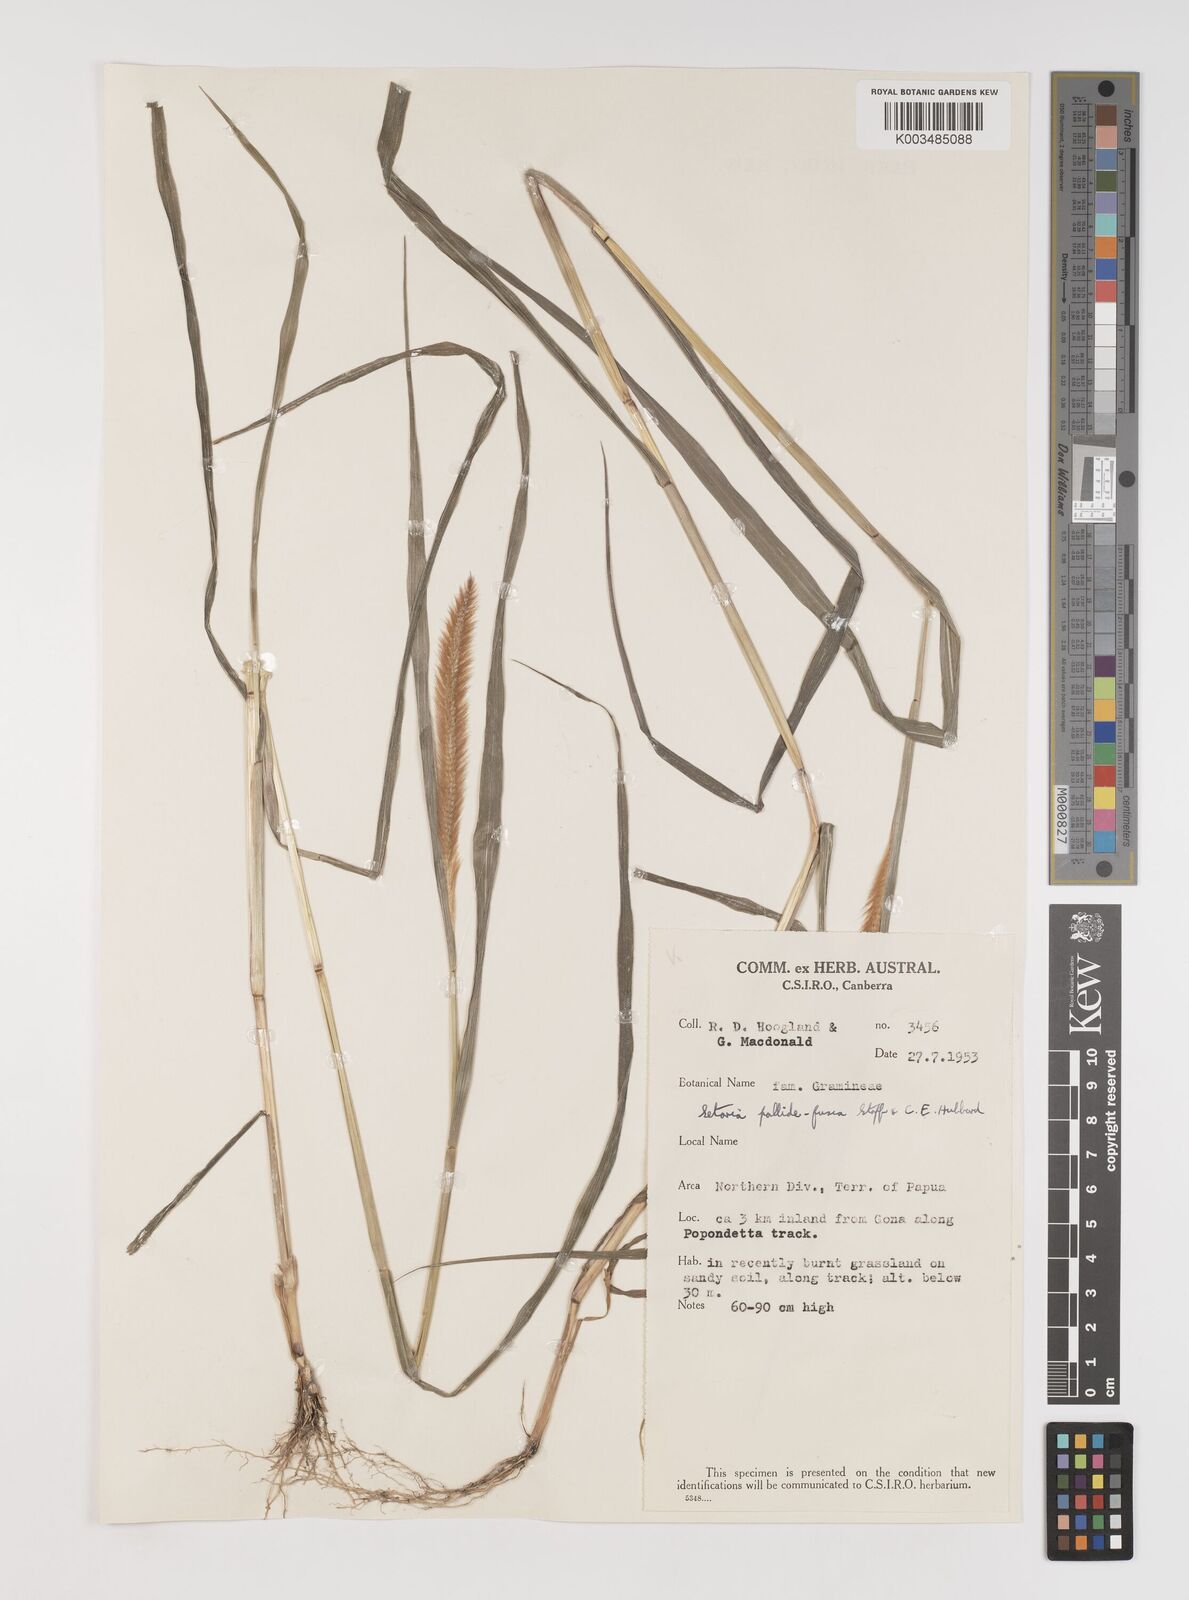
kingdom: Plantae
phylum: Tracheophyta
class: Liliopsida
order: Poales
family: Poaceae
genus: Setaria
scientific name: Setaria parviflora
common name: Knotroot bristle-grass
